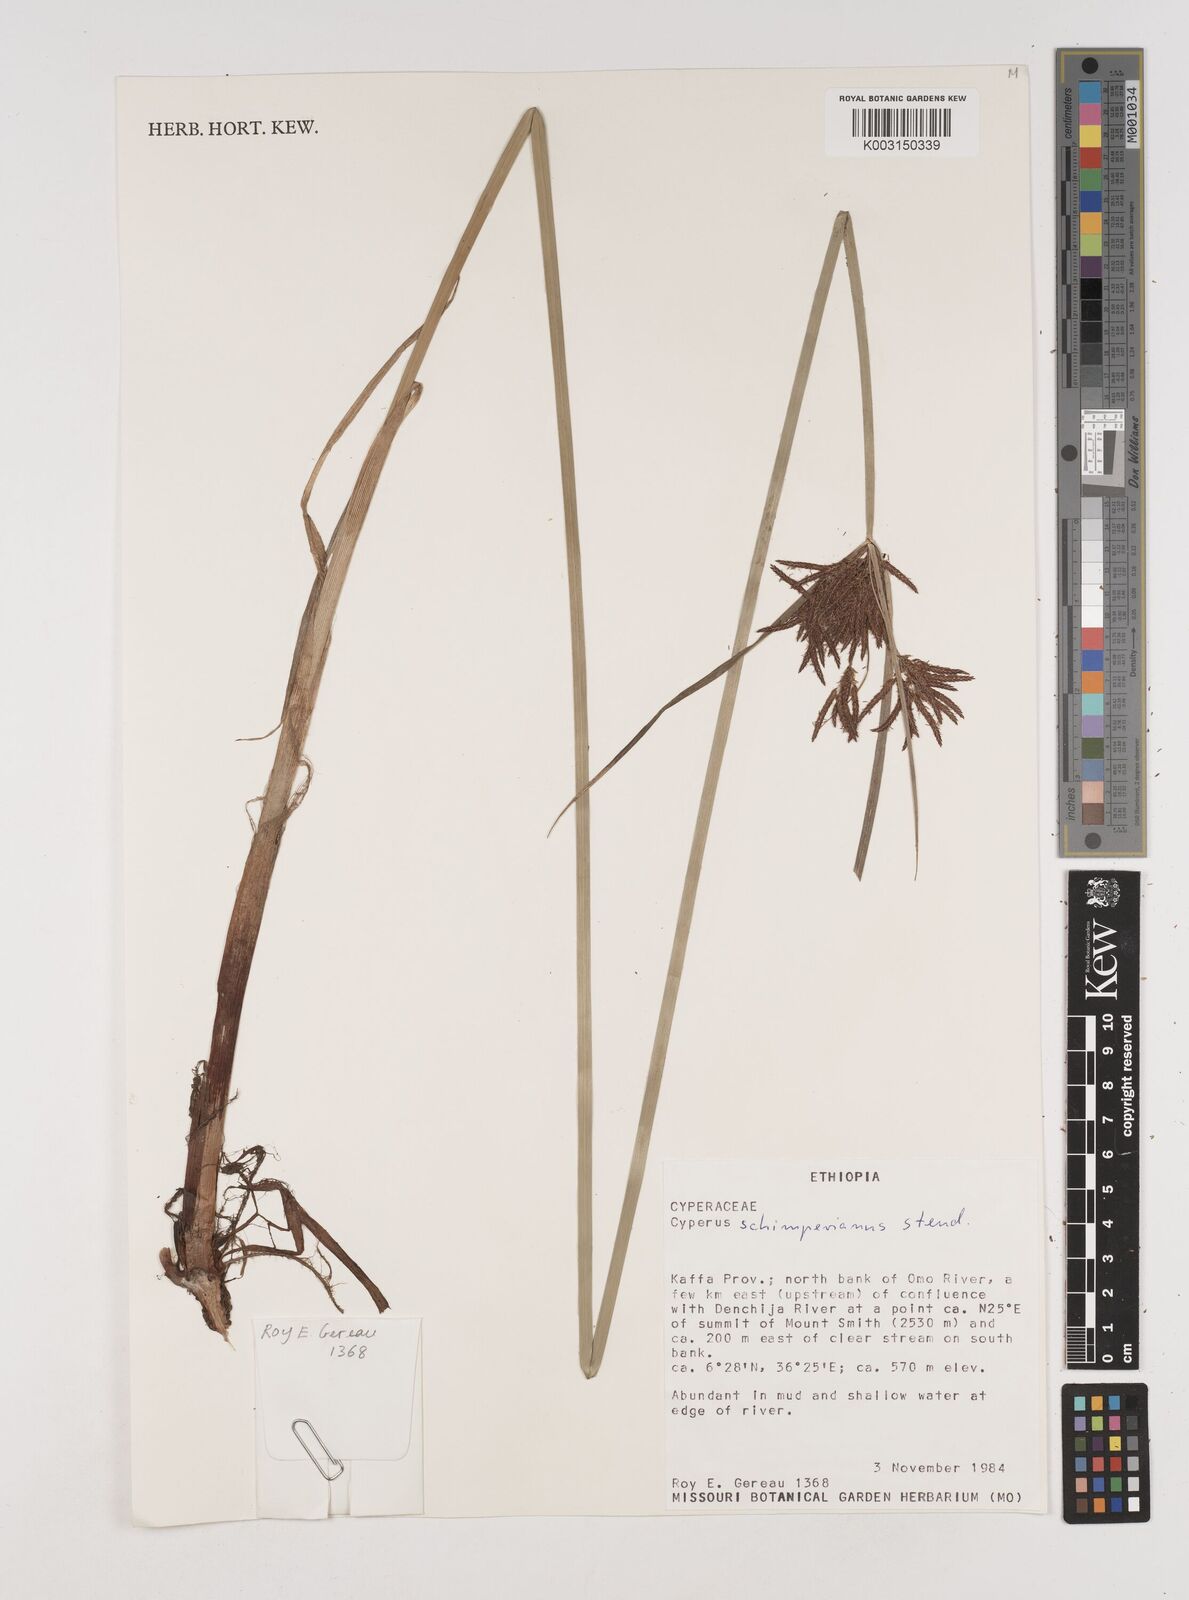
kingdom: Plantae
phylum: Tracheophyta
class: Liliopsida
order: Poales
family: Cyperaceae
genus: Cyperus
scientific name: Cyperus schimperianus
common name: Schimper flatsedge
